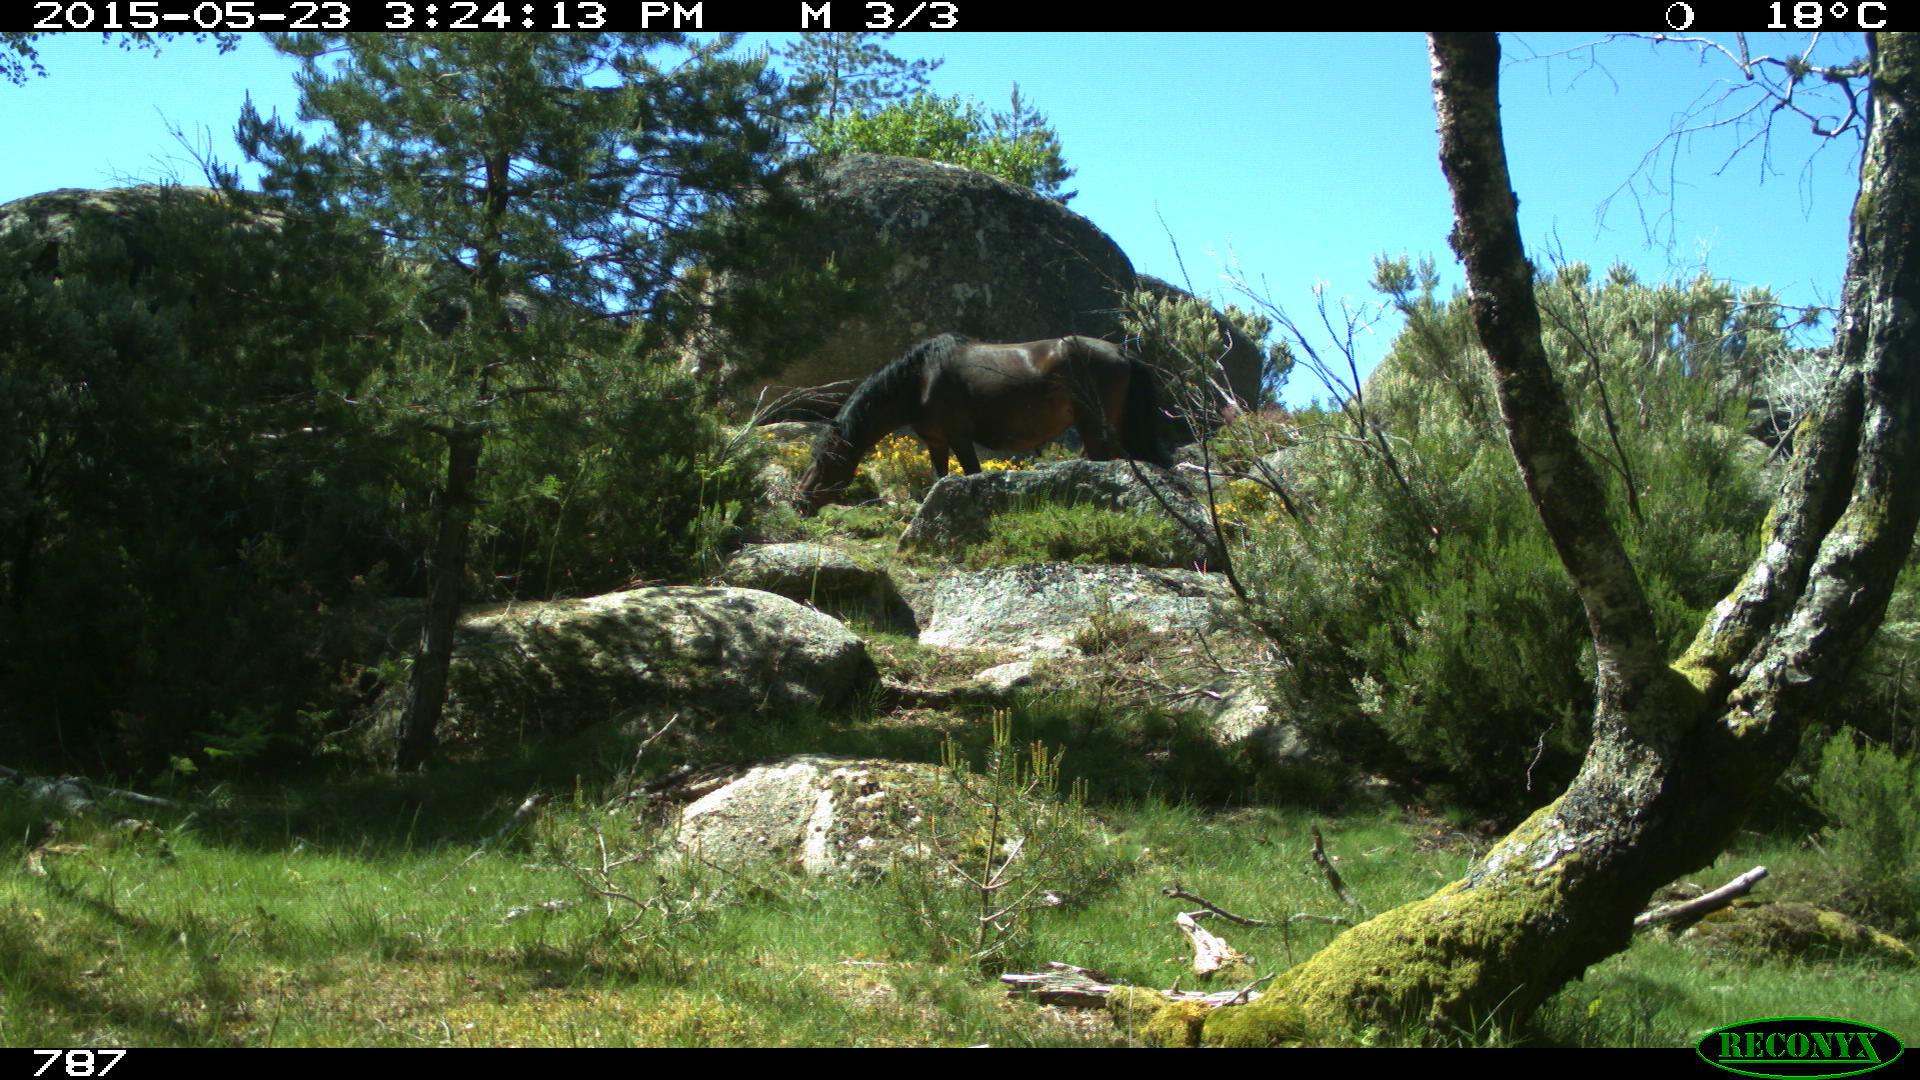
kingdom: Animalia
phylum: Chordata
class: Mammalia
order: Perissodactyla
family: Equidae
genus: Equus
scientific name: Equus caballus
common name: Horse
